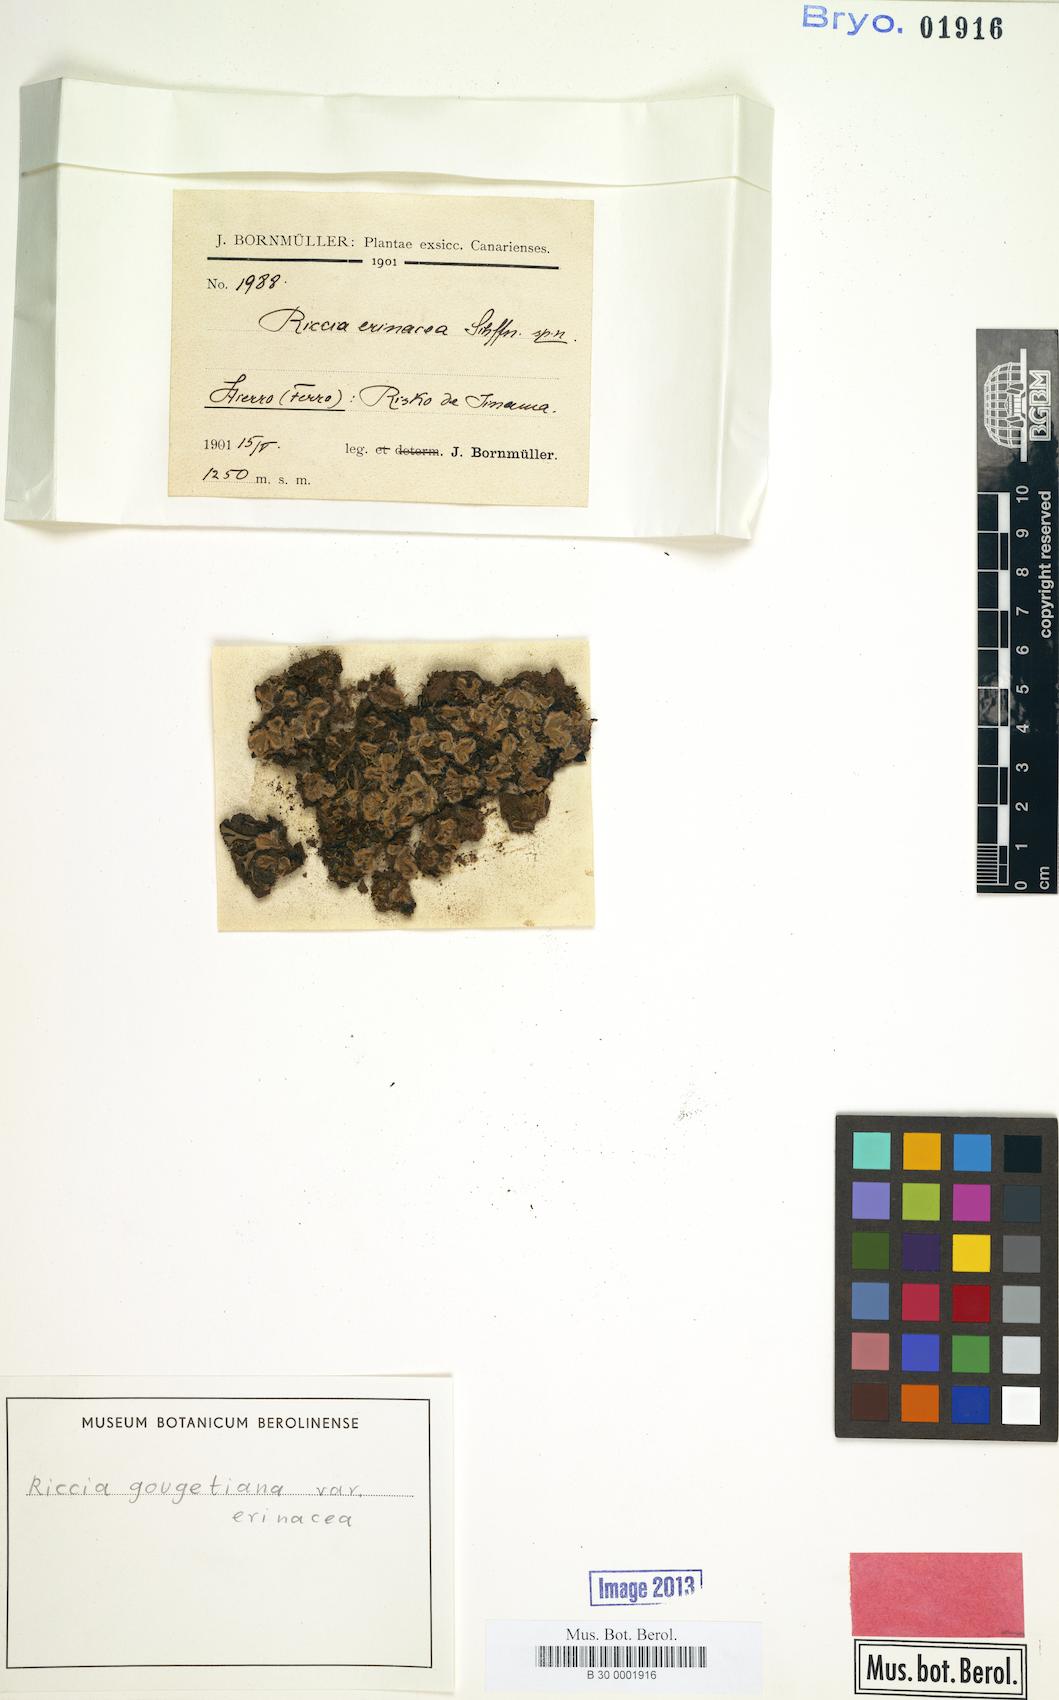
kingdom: Plantae
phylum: Marchantiophyta
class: Marchantiopsida
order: Marchantiales
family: Ricciaceae
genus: Riccia
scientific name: Riccia gougetiana
